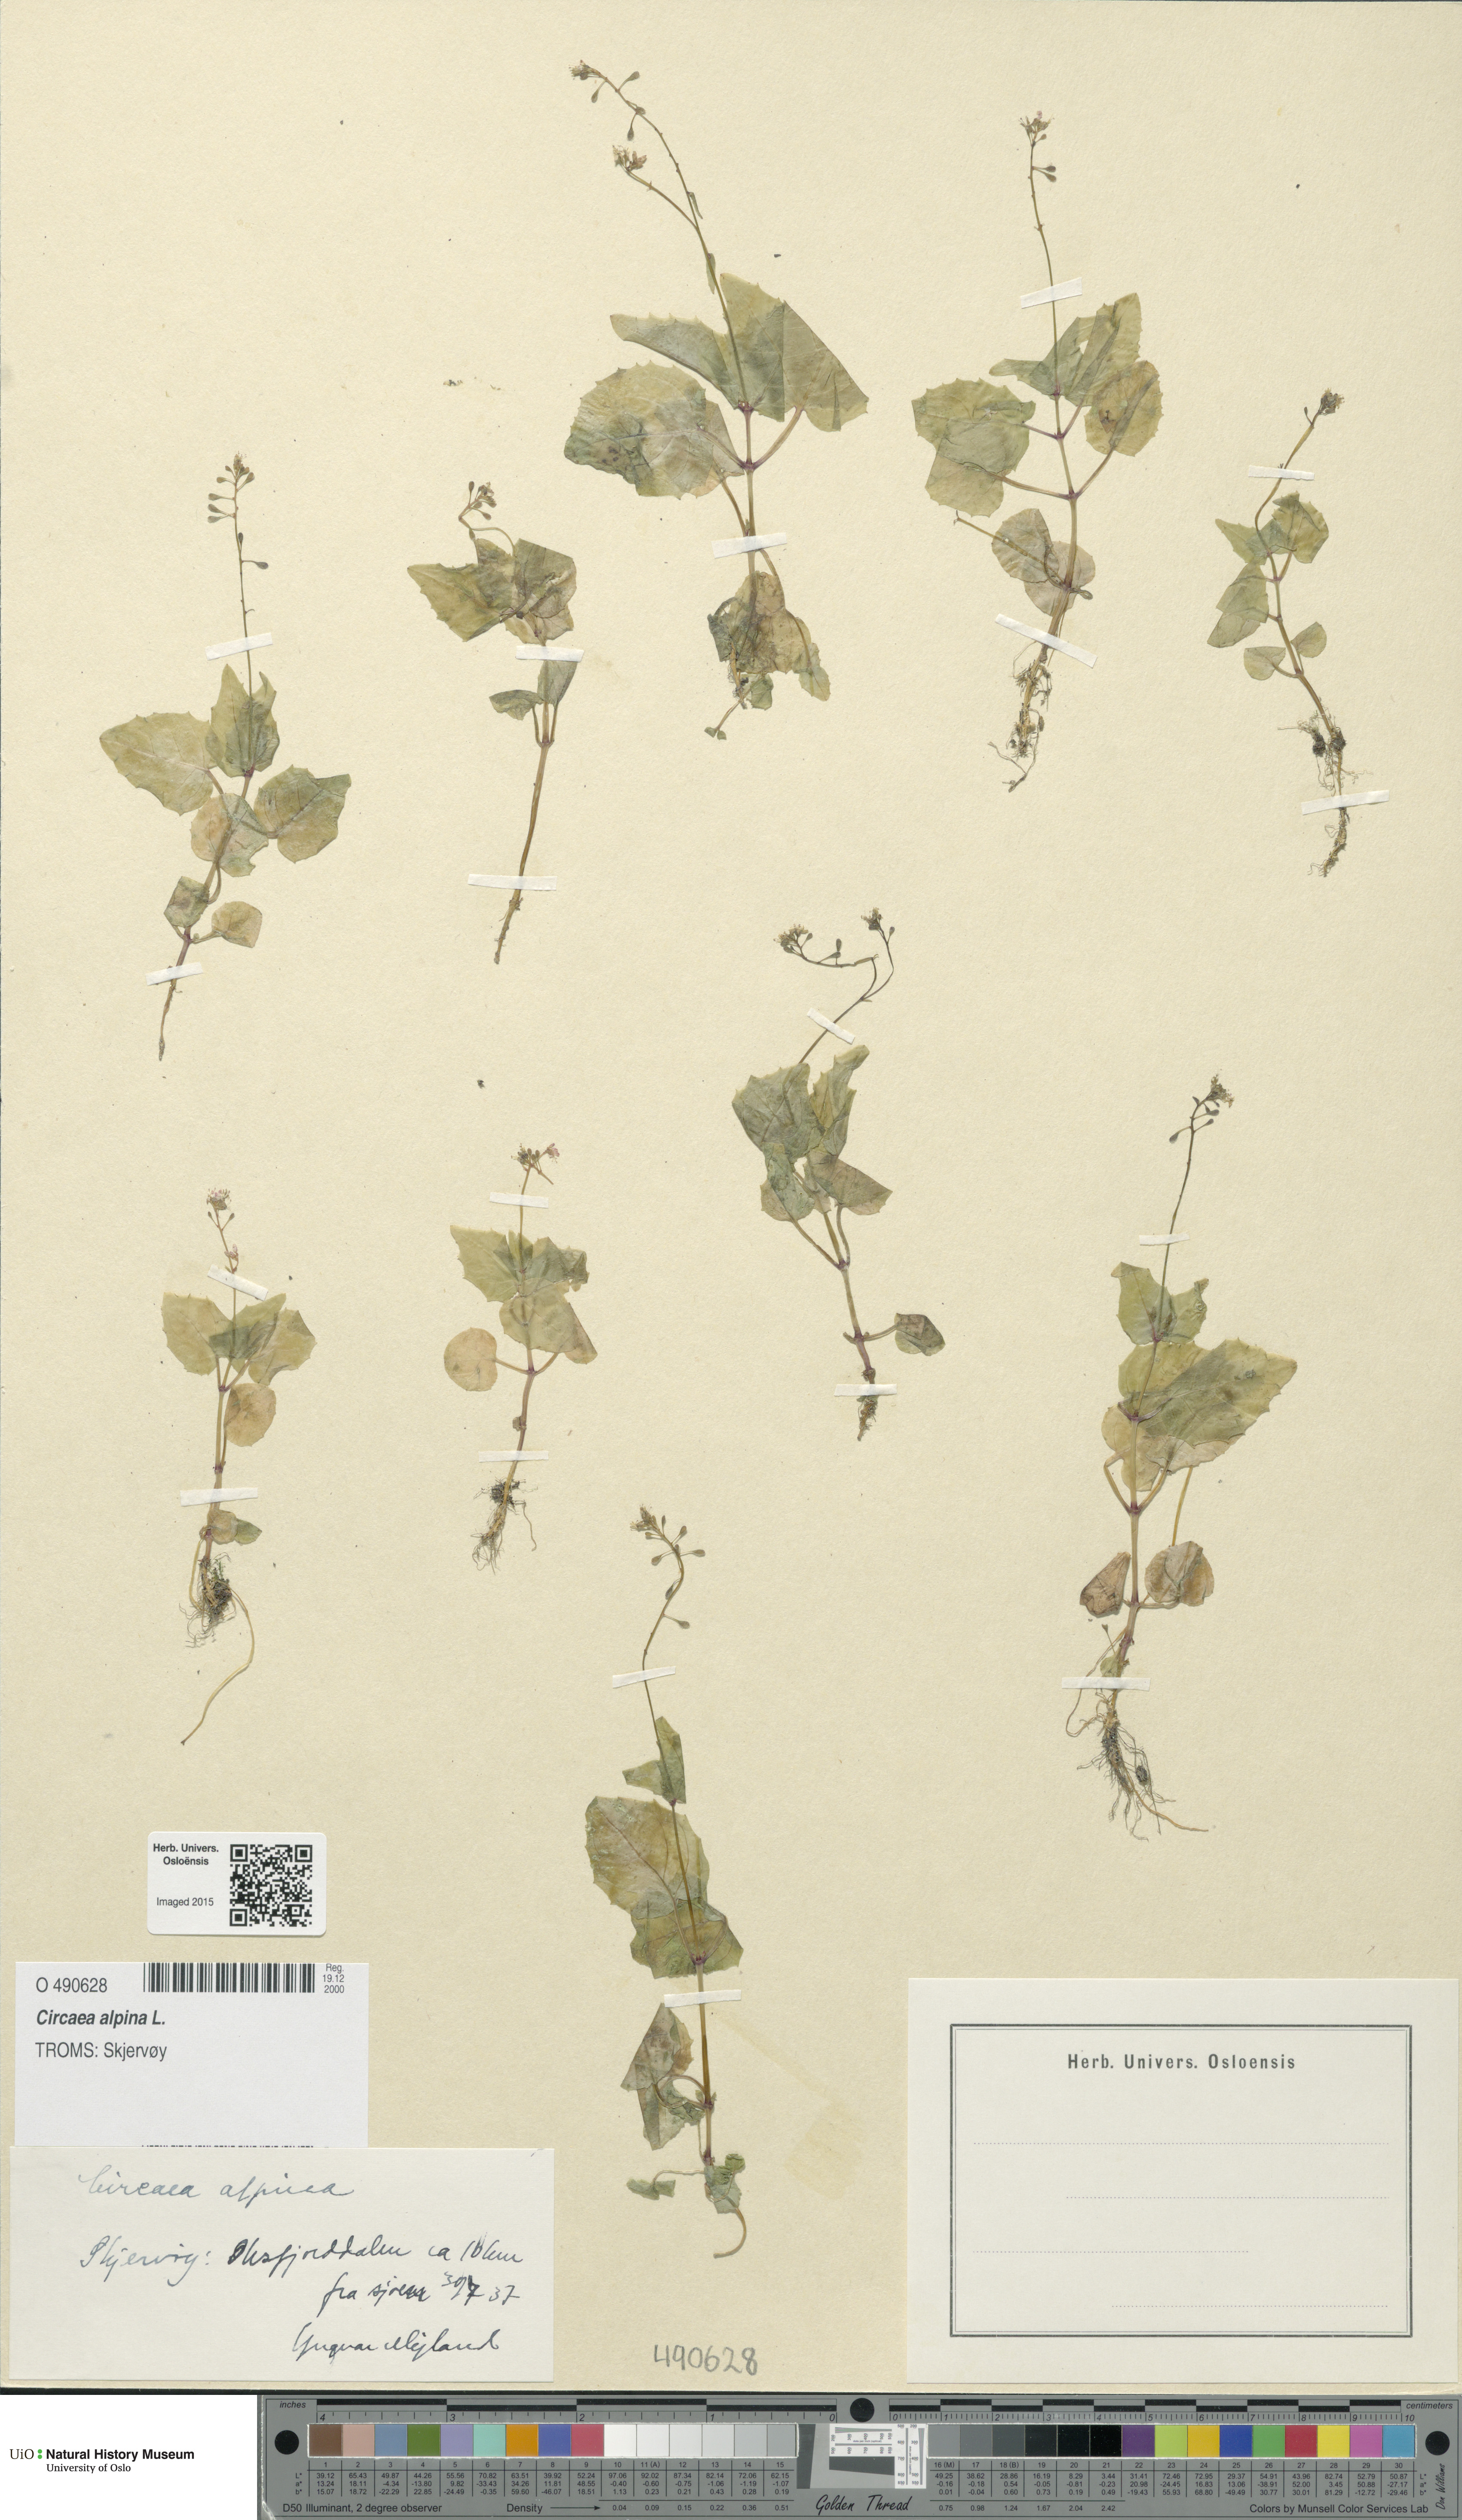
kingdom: Plantae
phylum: Tracheophyta
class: Magnoliopsida
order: Myrtales
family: Onagraceae
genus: Circaea
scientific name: Circaea alpina
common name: Alpine enchanter's-nightshade
